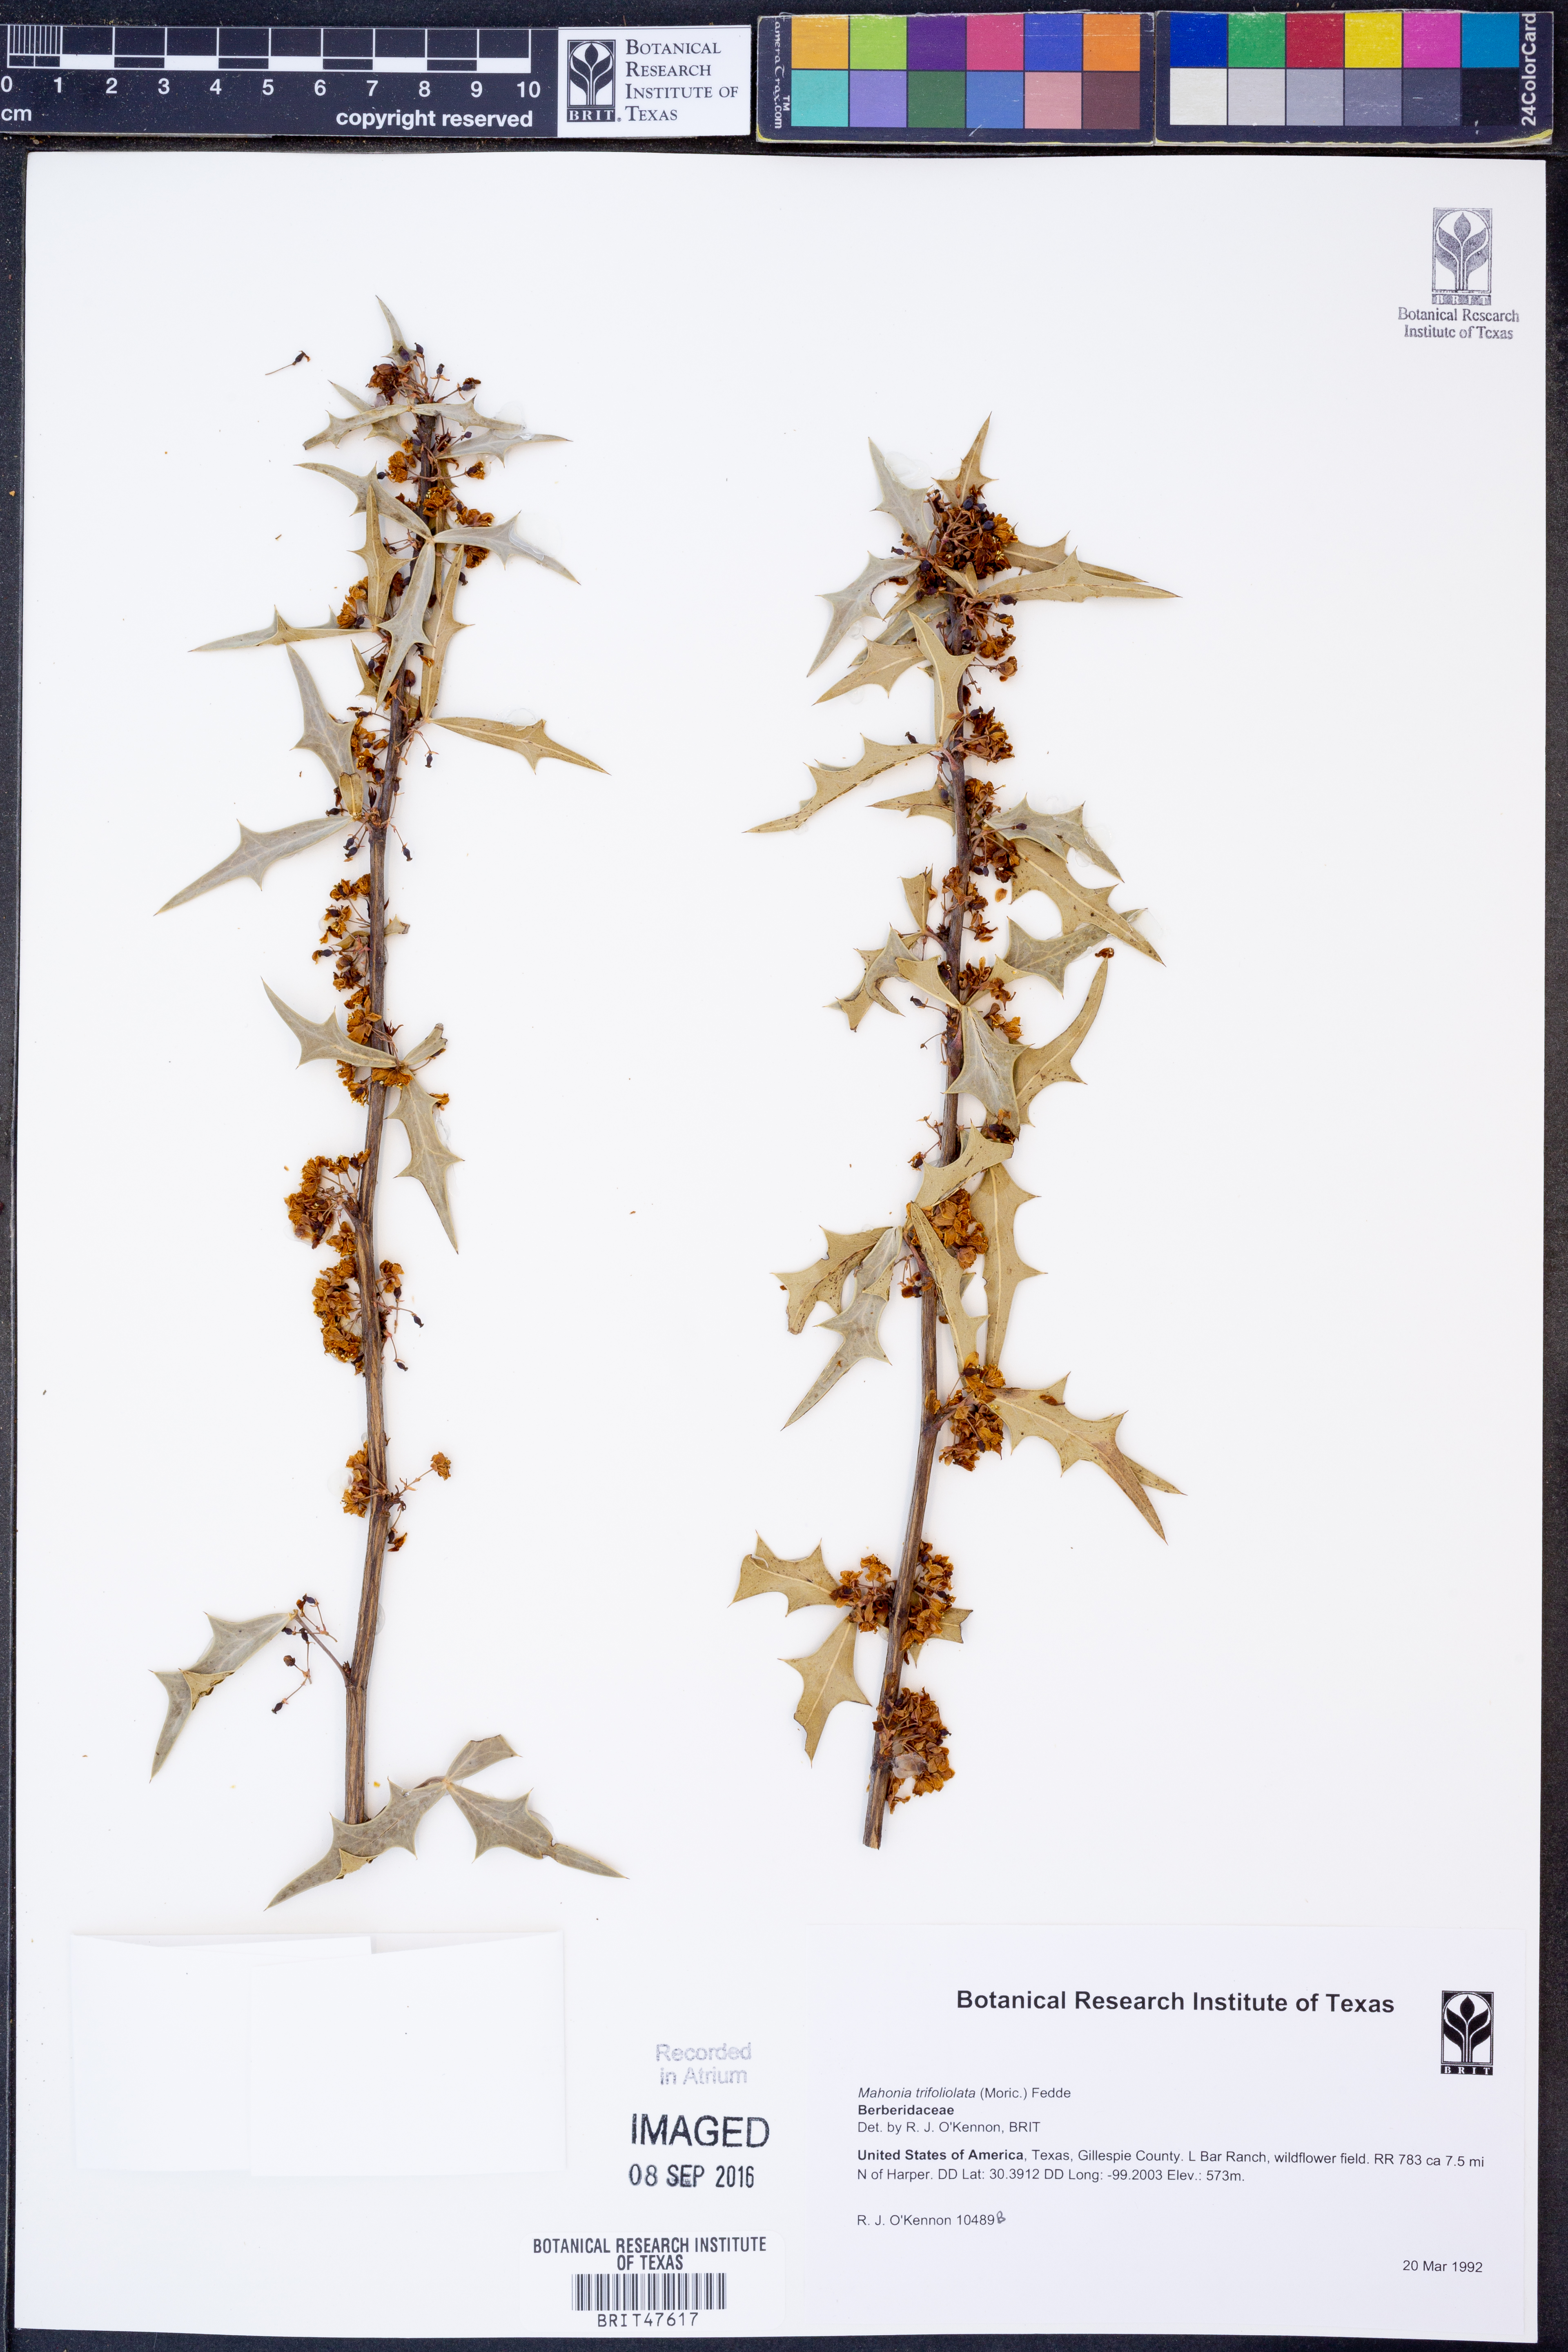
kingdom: Plantae
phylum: Tracheophyta
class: Magnoliopsida
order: Ranunculales
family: Berberidaceae
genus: Alloberberis
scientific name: Alloberberis trifoliolata
